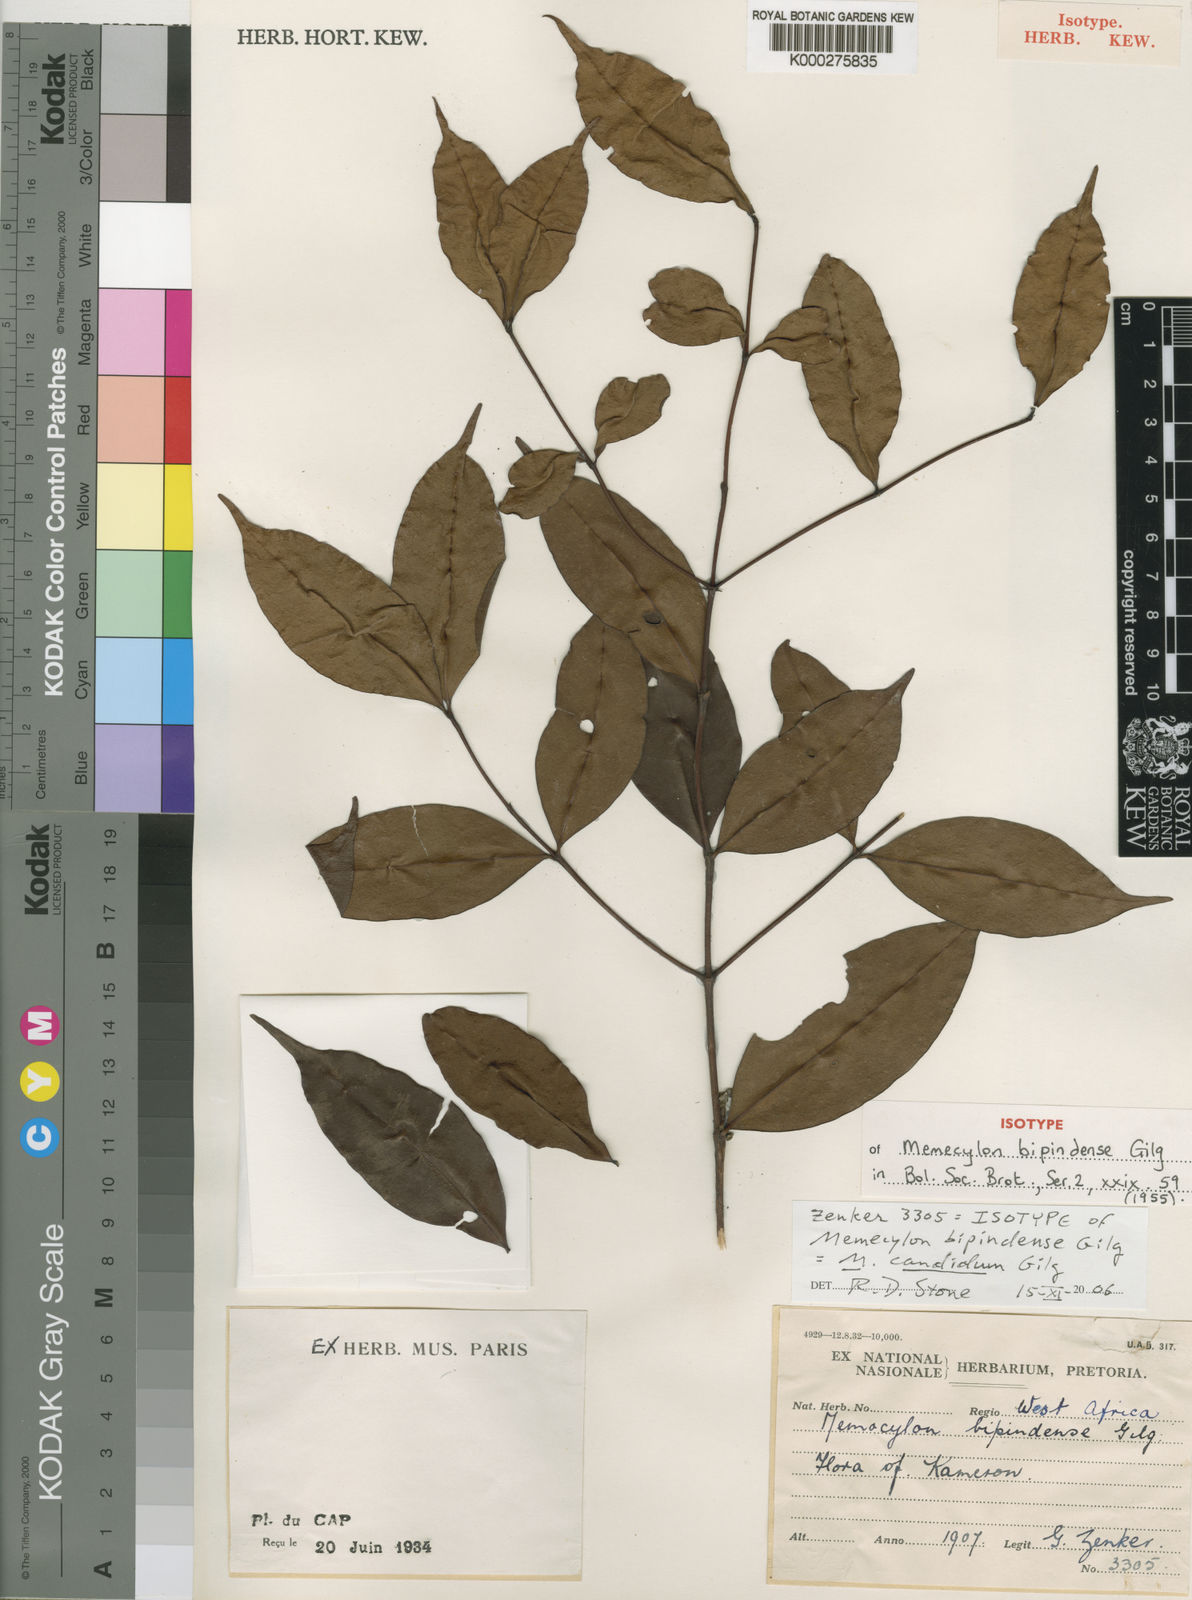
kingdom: Plantae
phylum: Tracheophyta
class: Magnoliopsida
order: Myrtales
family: Melastomataceae
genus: Memecylon
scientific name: Memecylon candidum
